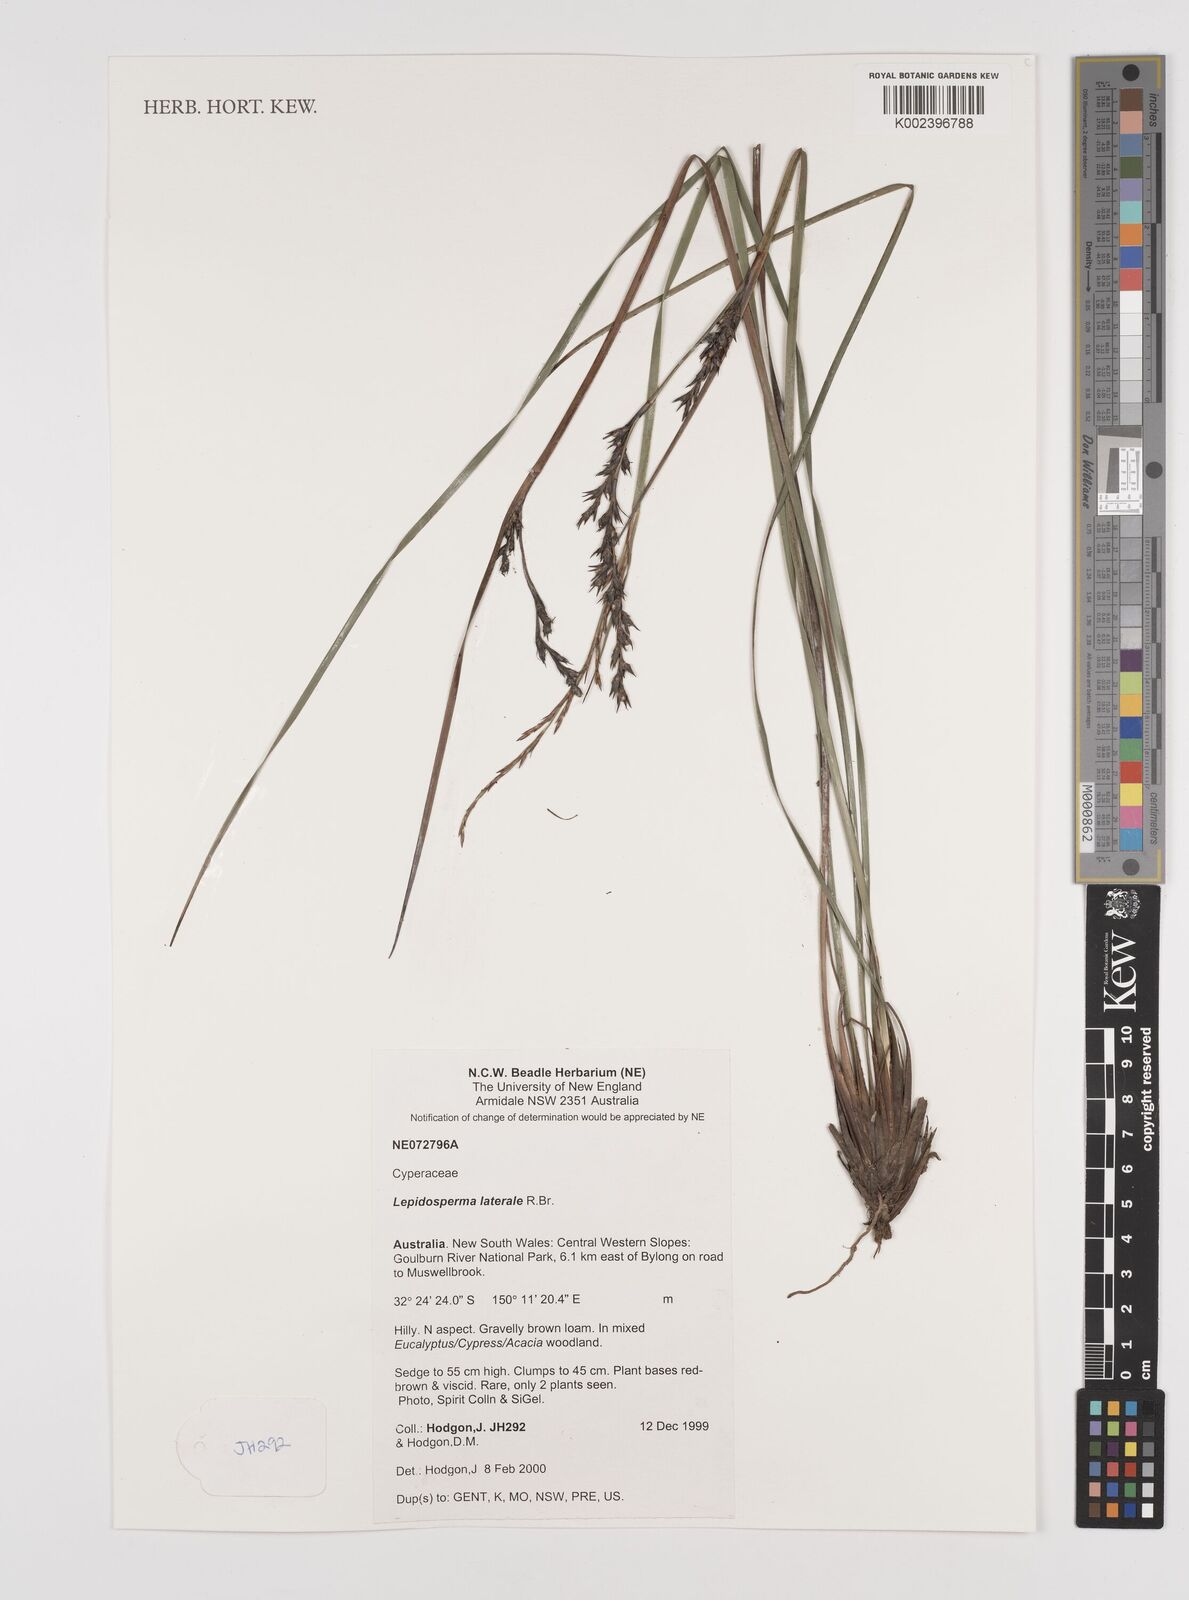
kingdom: Plantae
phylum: Tracheophyta
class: Liliopsida
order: Poales
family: Cyperaceae
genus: Lepidosperma
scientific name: Lepidosperma laterale
